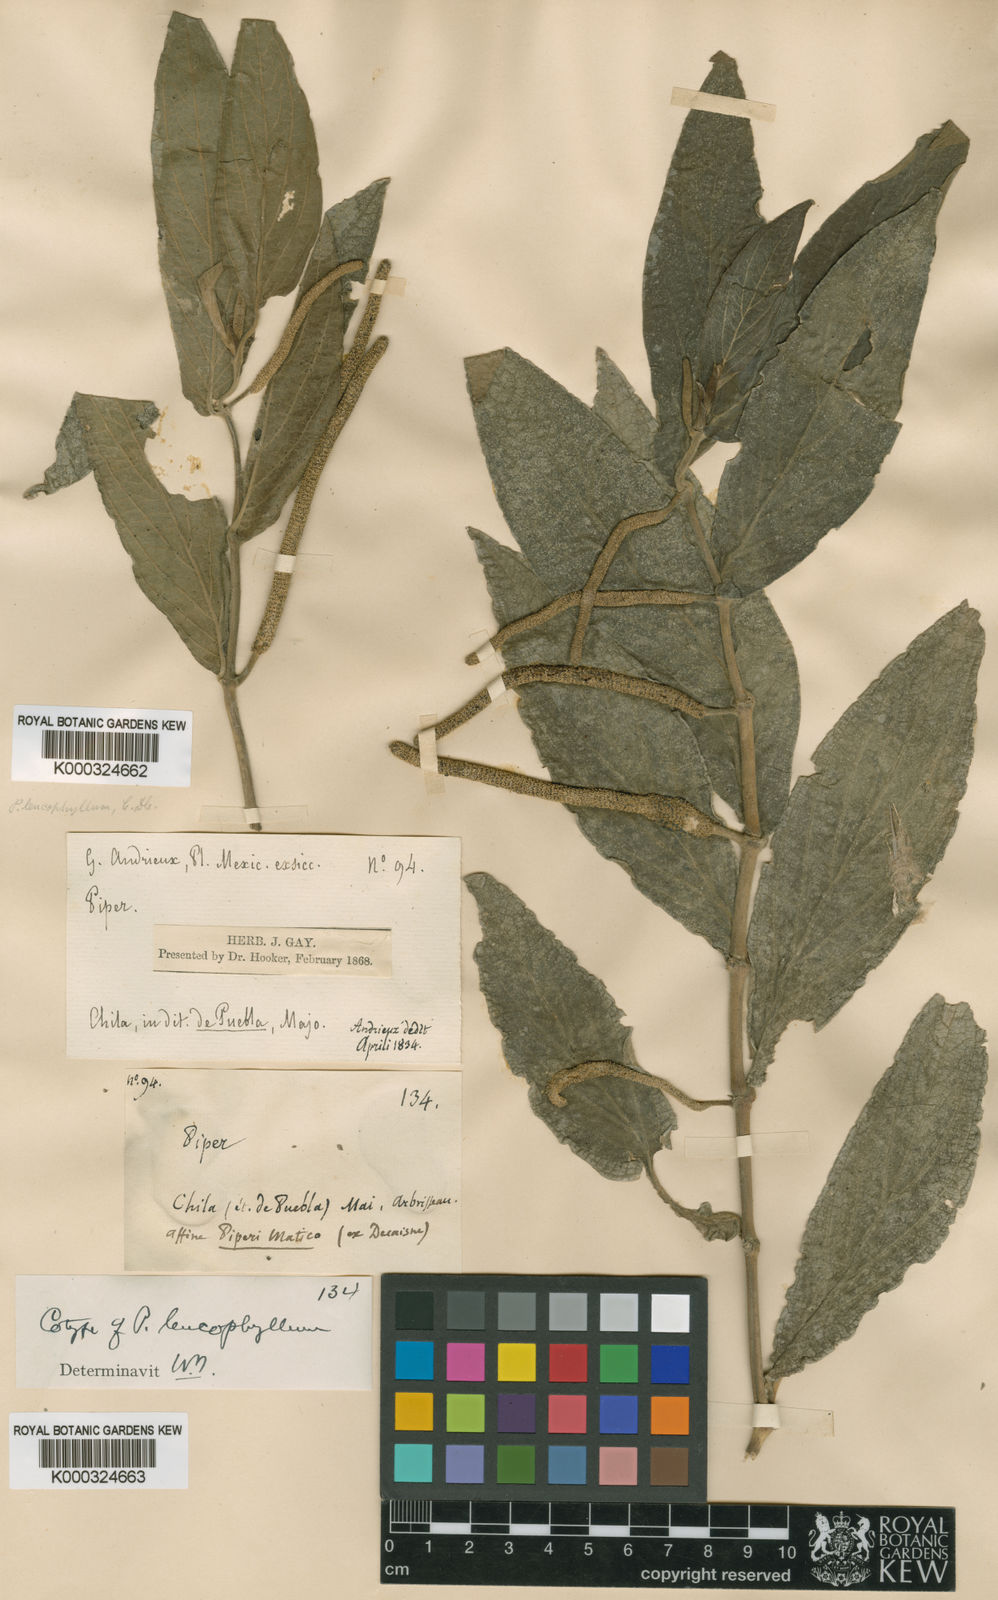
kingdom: Plantae
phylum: Tracheophyta
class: Magnoliopsida
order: Piperales
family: Piperaceae
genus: Piper
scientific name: Piper leucophyllum
